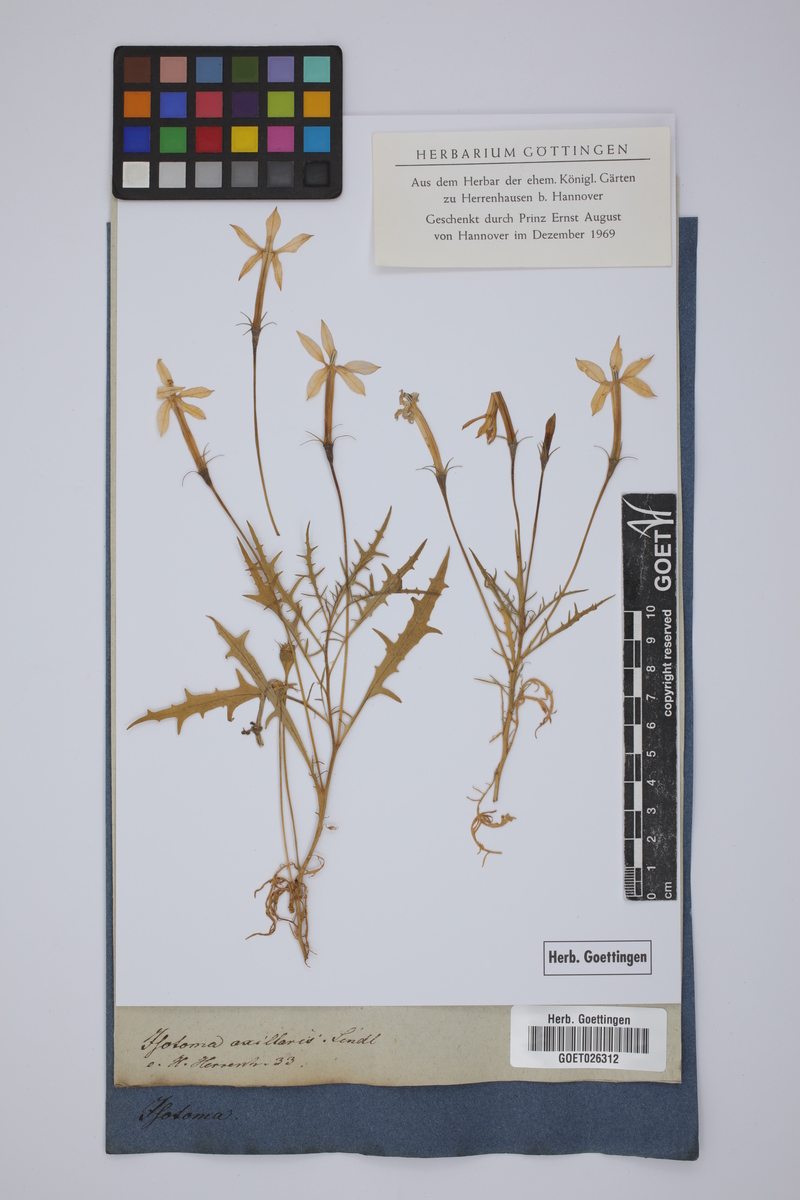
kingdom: Plantae
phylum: Tracheophyta
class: Magnoliopsida
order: Asterales
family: Campanulaceae
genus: Lithotoma
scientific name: Lithotoma axillaris
